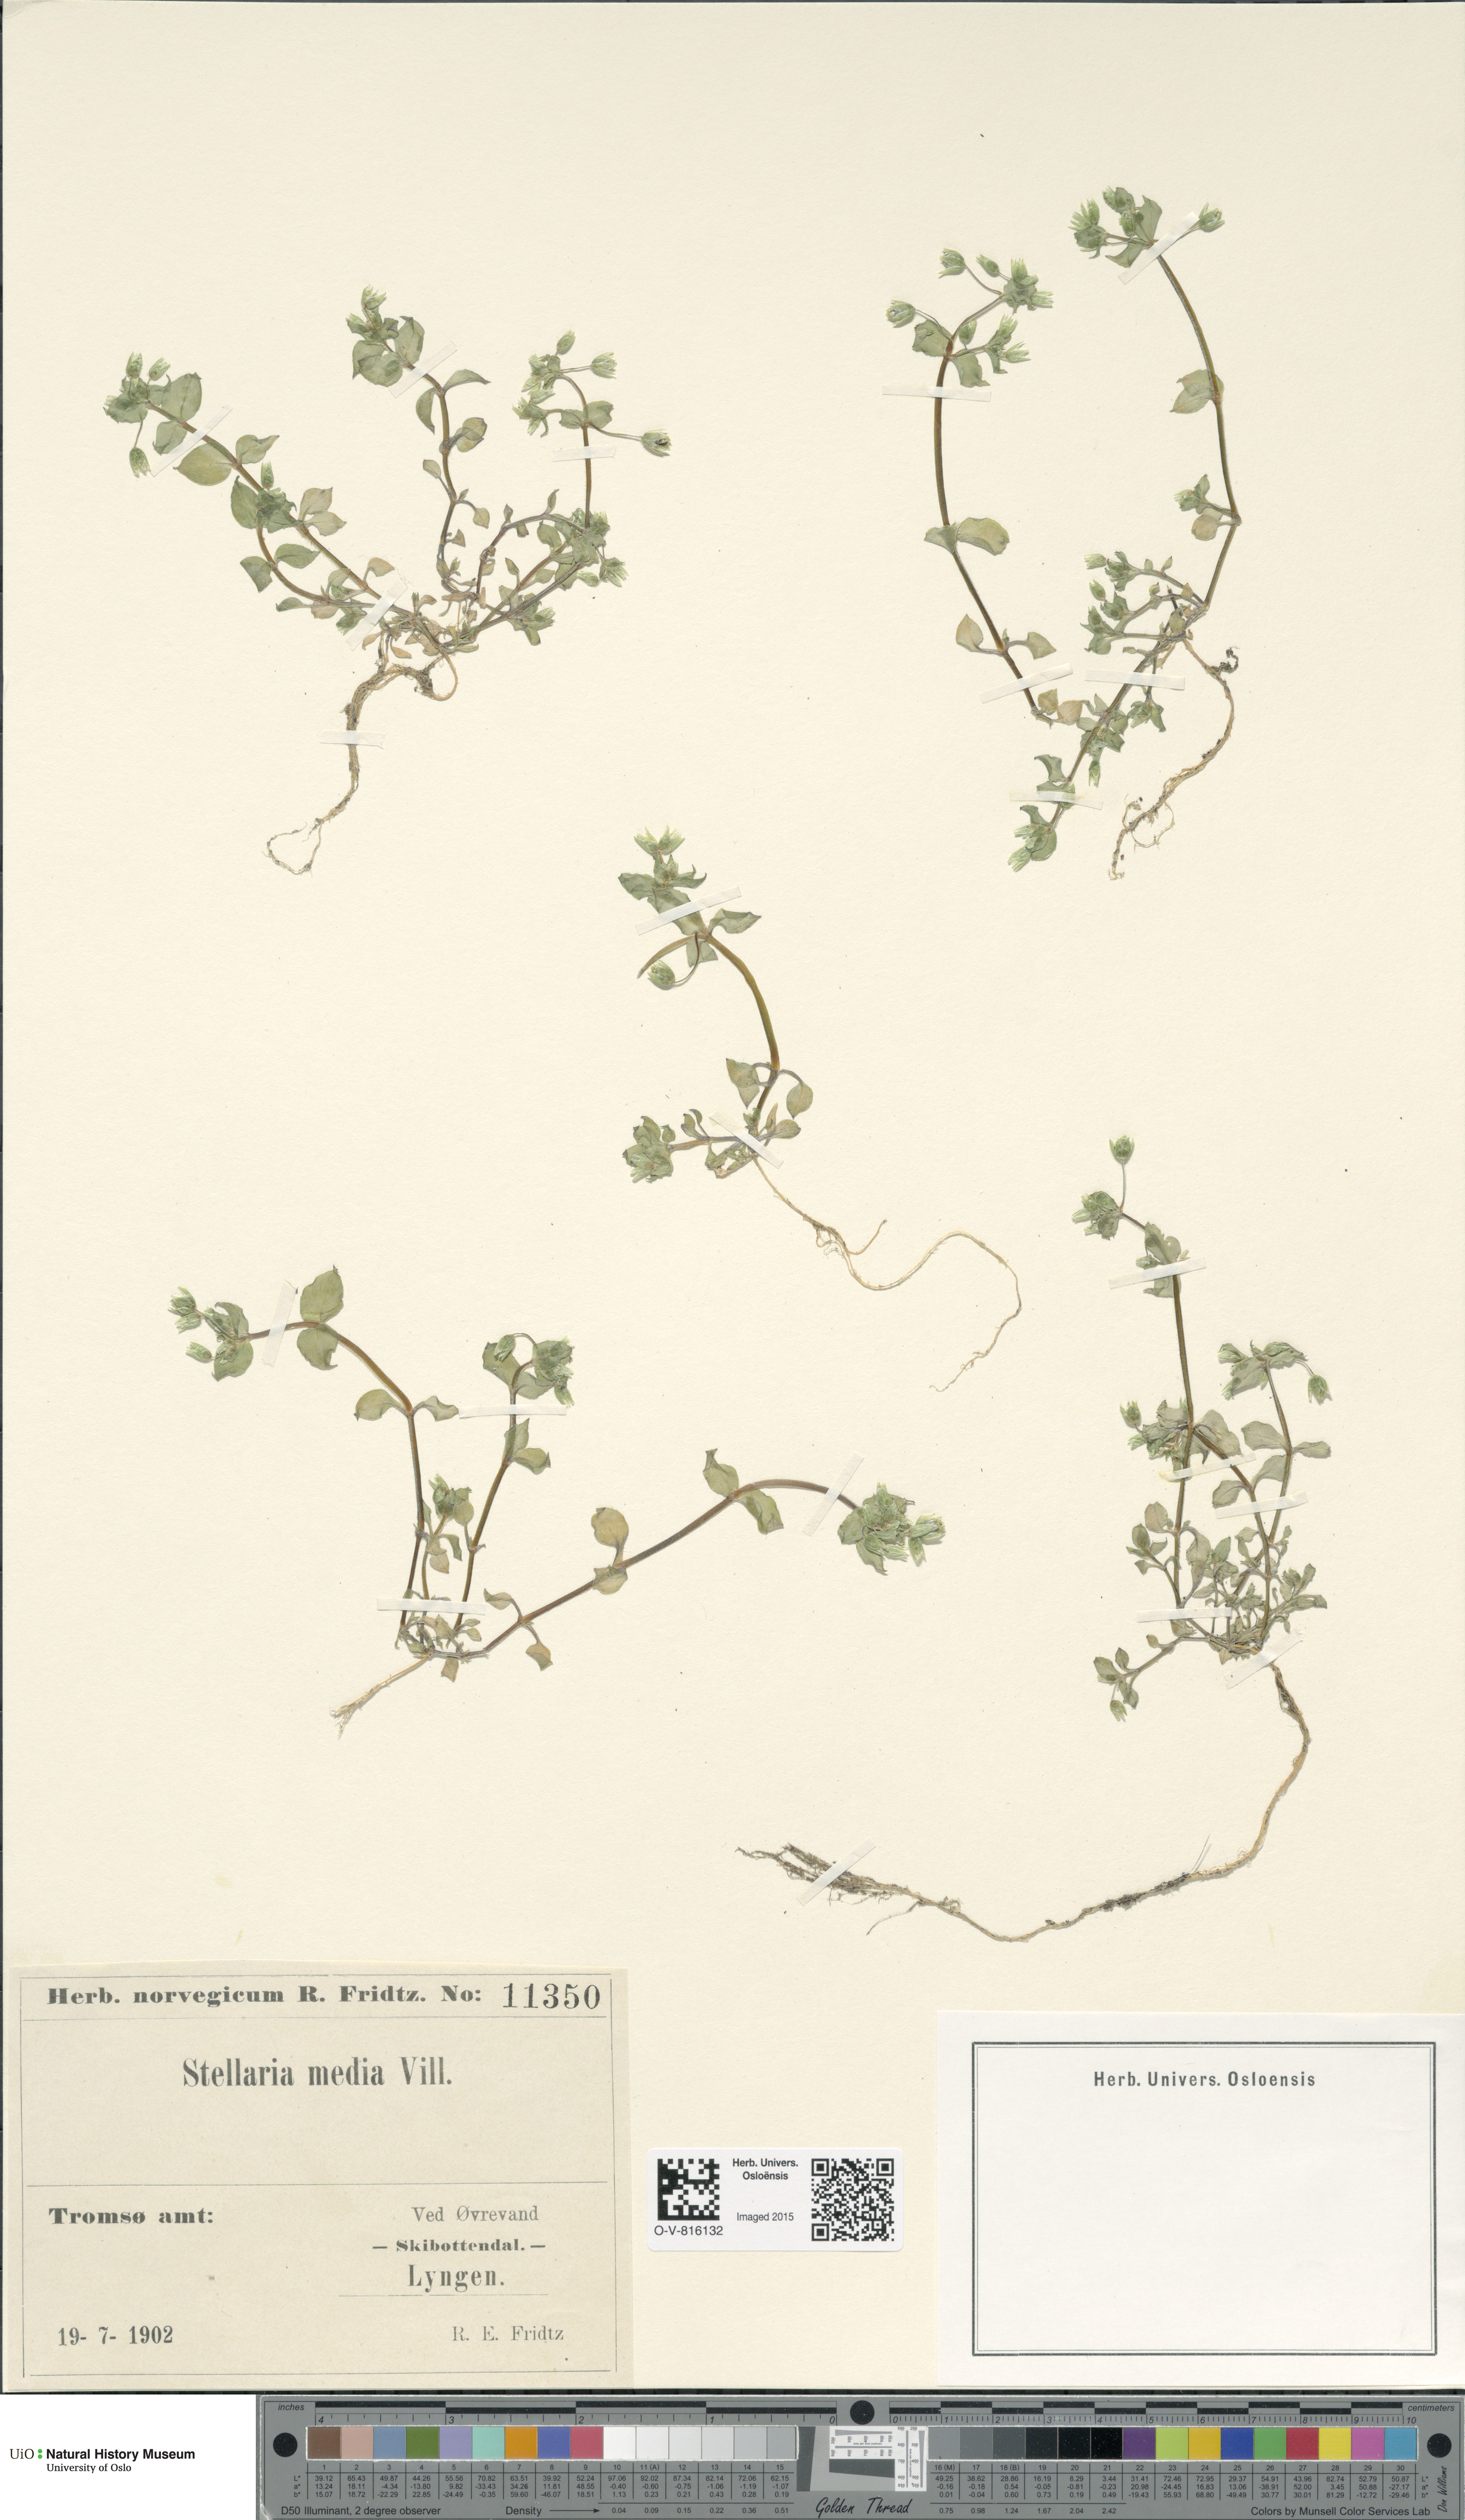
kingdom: Plantae
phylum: Tracheophyta
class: Magnoliopsida
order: Caryophyllales
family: Caryophyllaceae
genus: Stellaria
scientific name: Stellaria media
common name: Common chickweed
